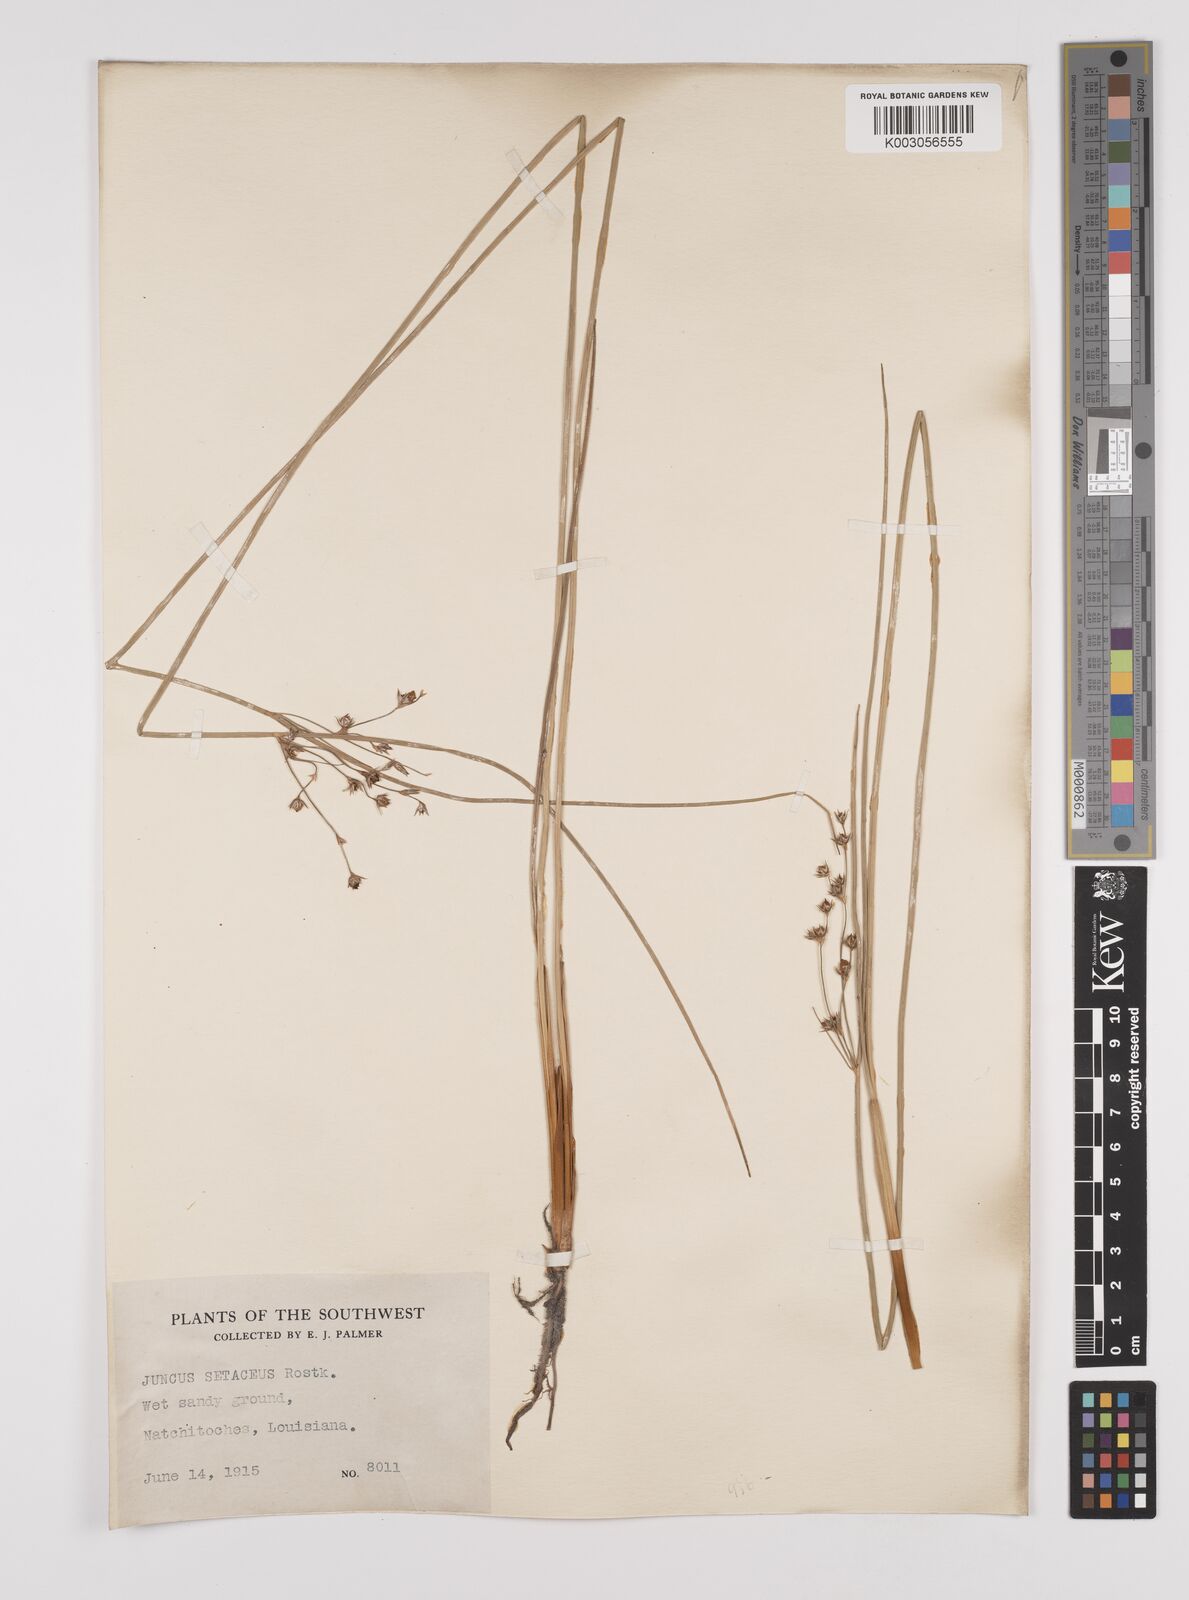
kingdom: Plantae
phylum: Tracheophyta
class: Liliopsida
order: Poales
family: Juncaceae
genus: Juncus
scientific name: Juncus balticus
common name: Baltic rush
